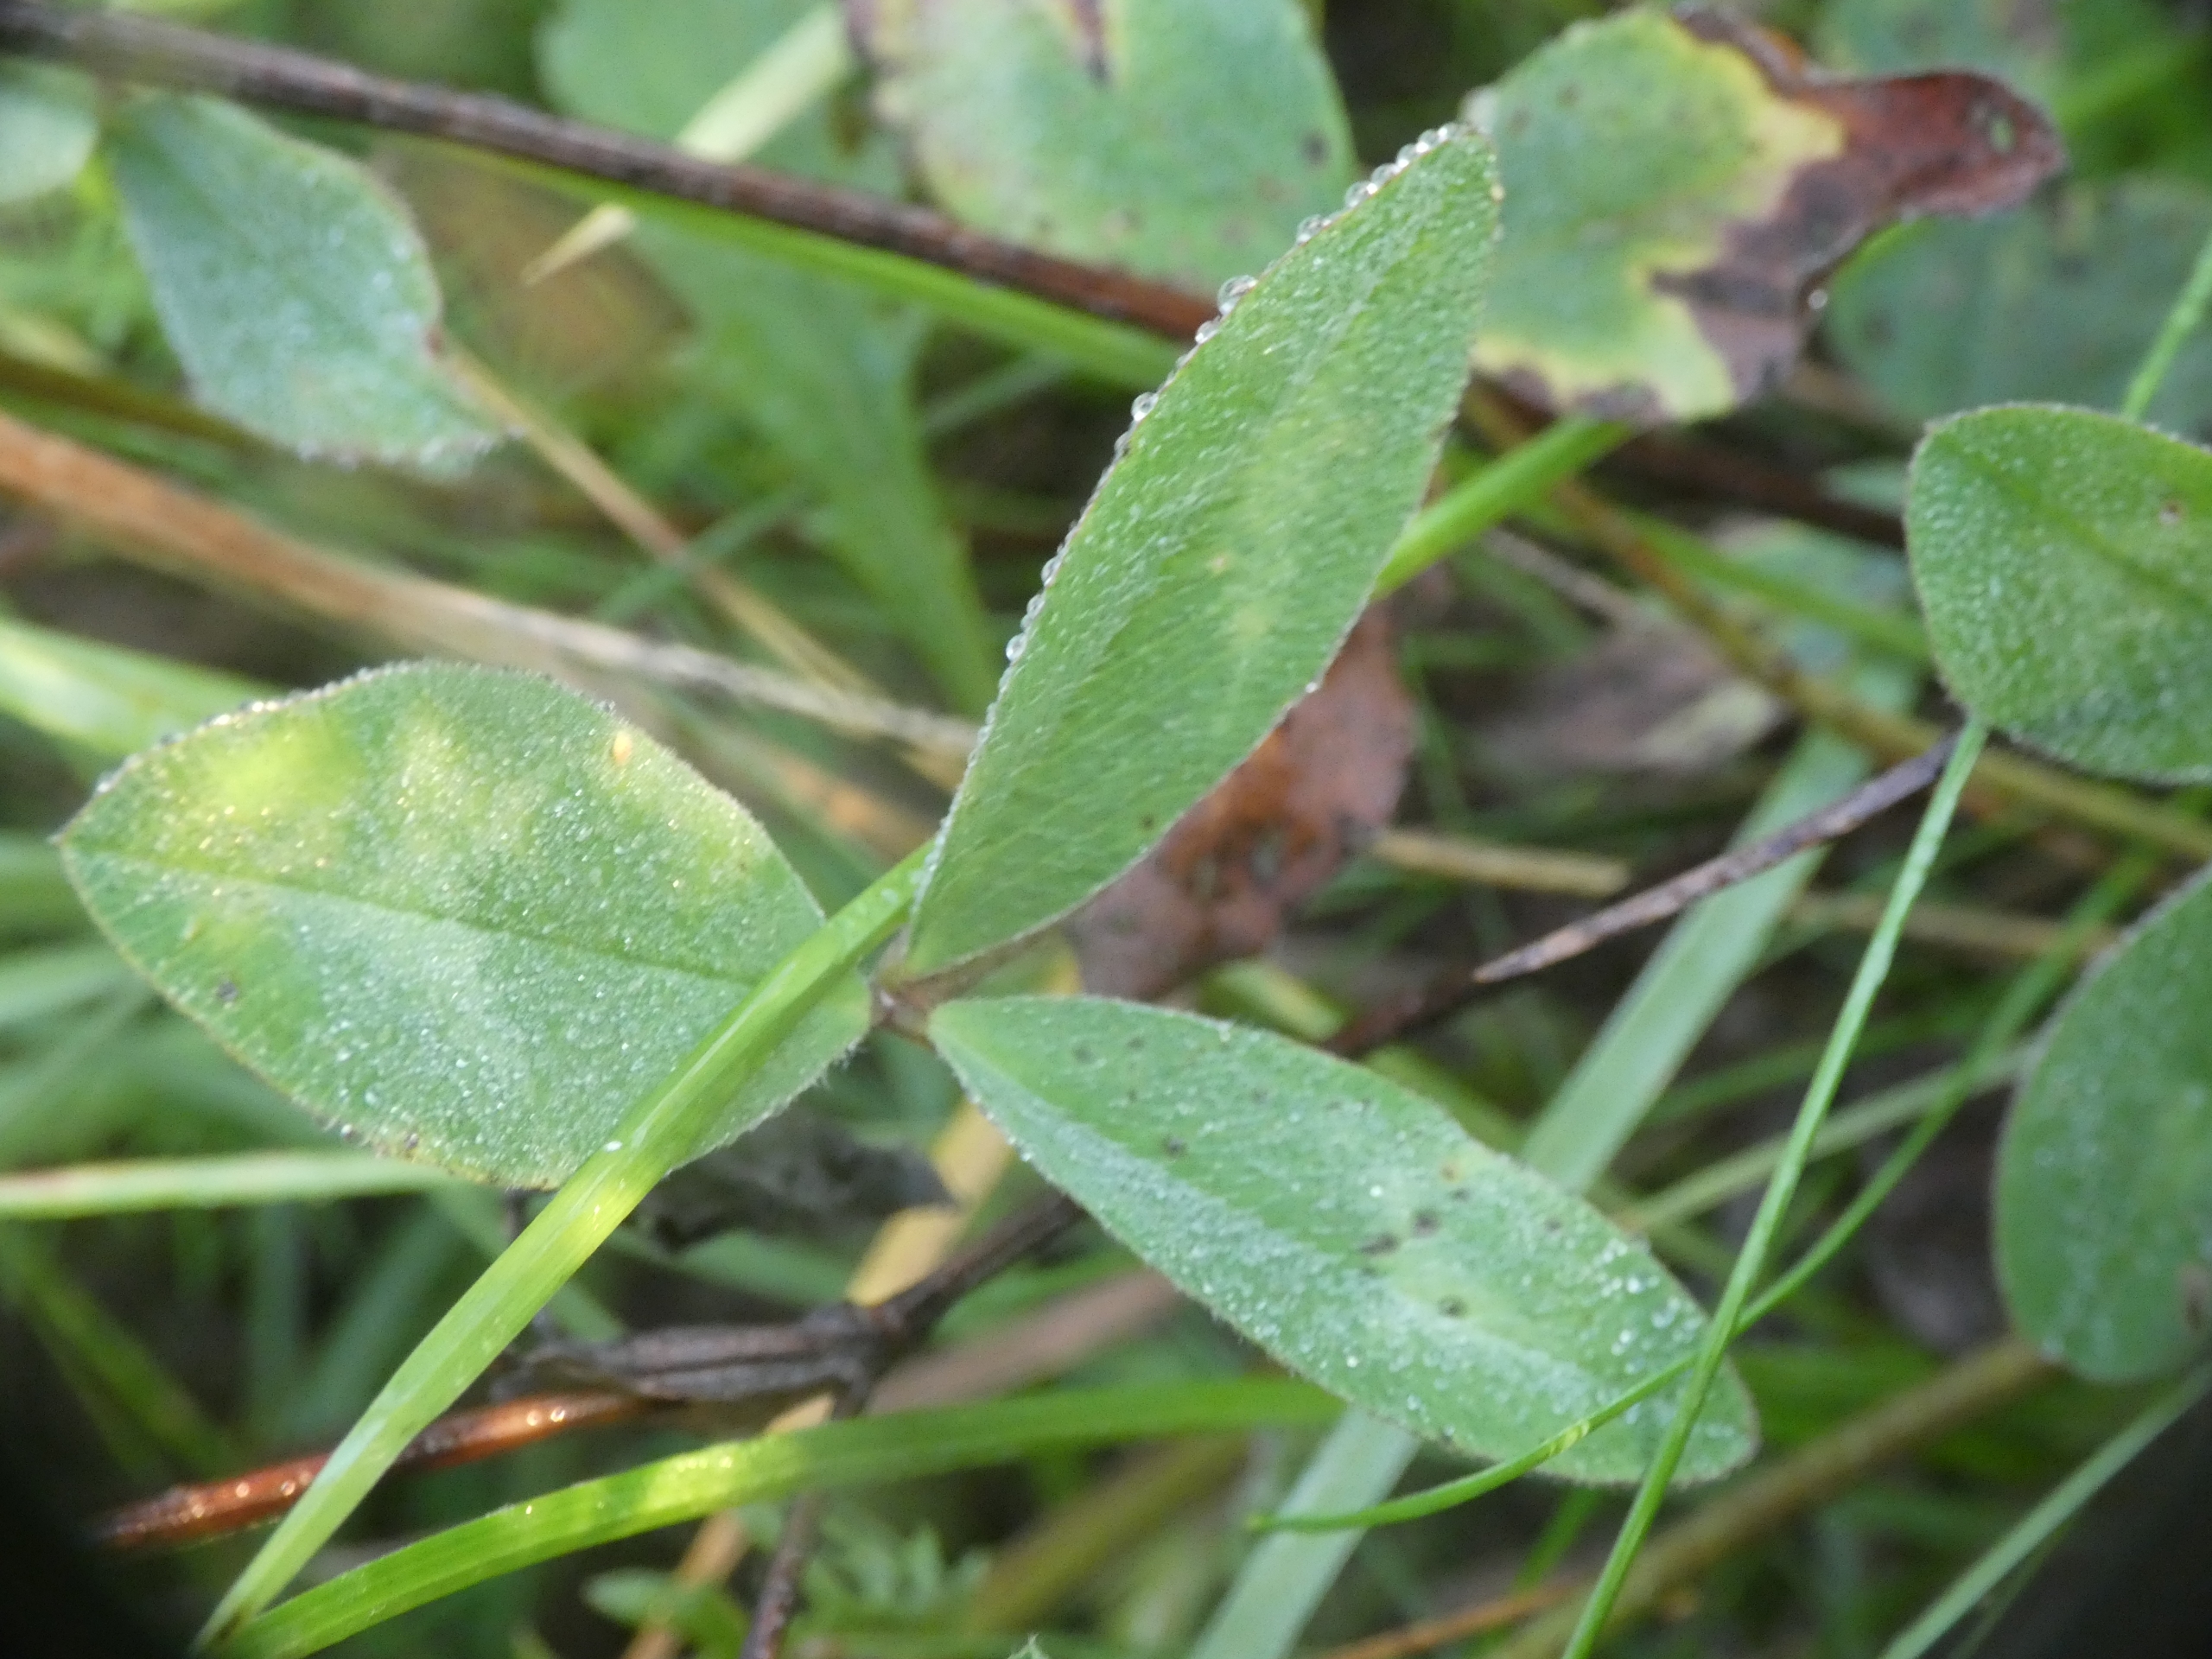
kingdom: Plantae
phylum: Tracheophyta
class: Magnoliopsida
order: Fabales
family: Fabaceae
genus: Trifolium
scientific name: Trifolium pratense
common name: Rød-kløver
